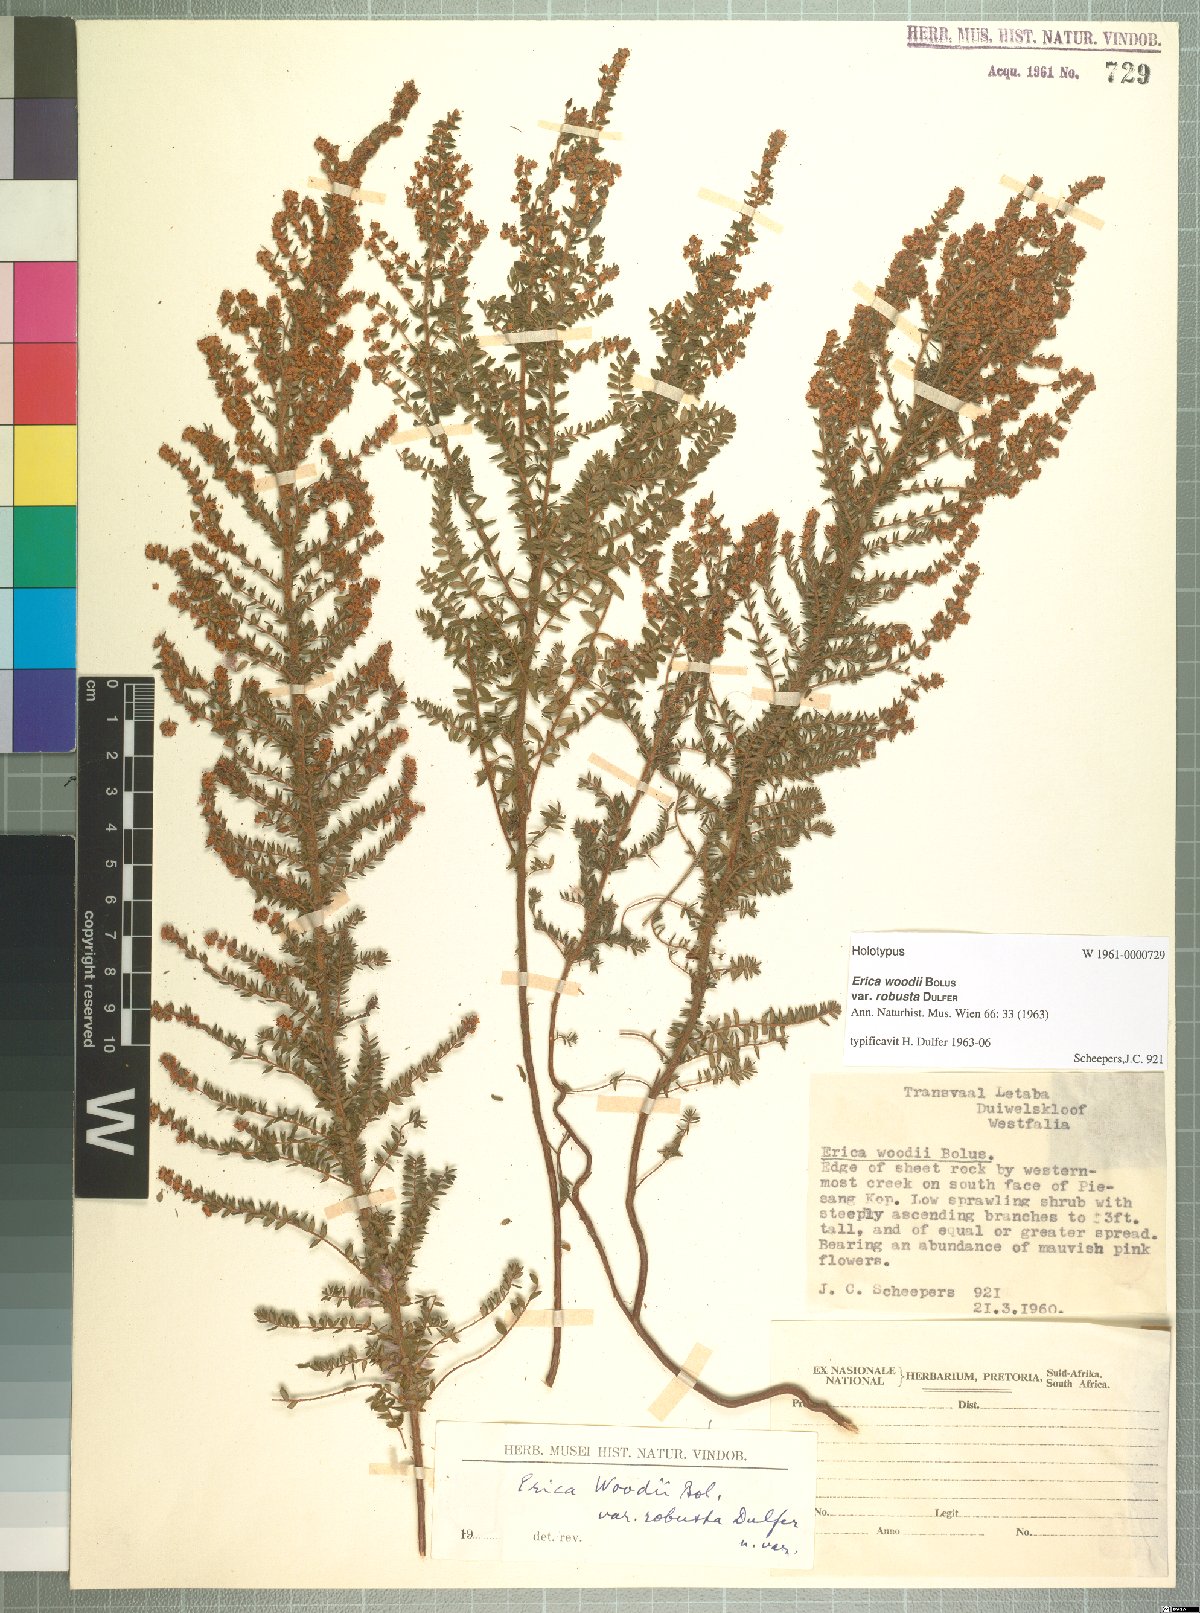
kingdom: Plantae
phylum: Tracheophyta
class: Magnoliopsida
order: Ericales
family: Ericaceae
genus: Erica
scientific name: Erica woodii
